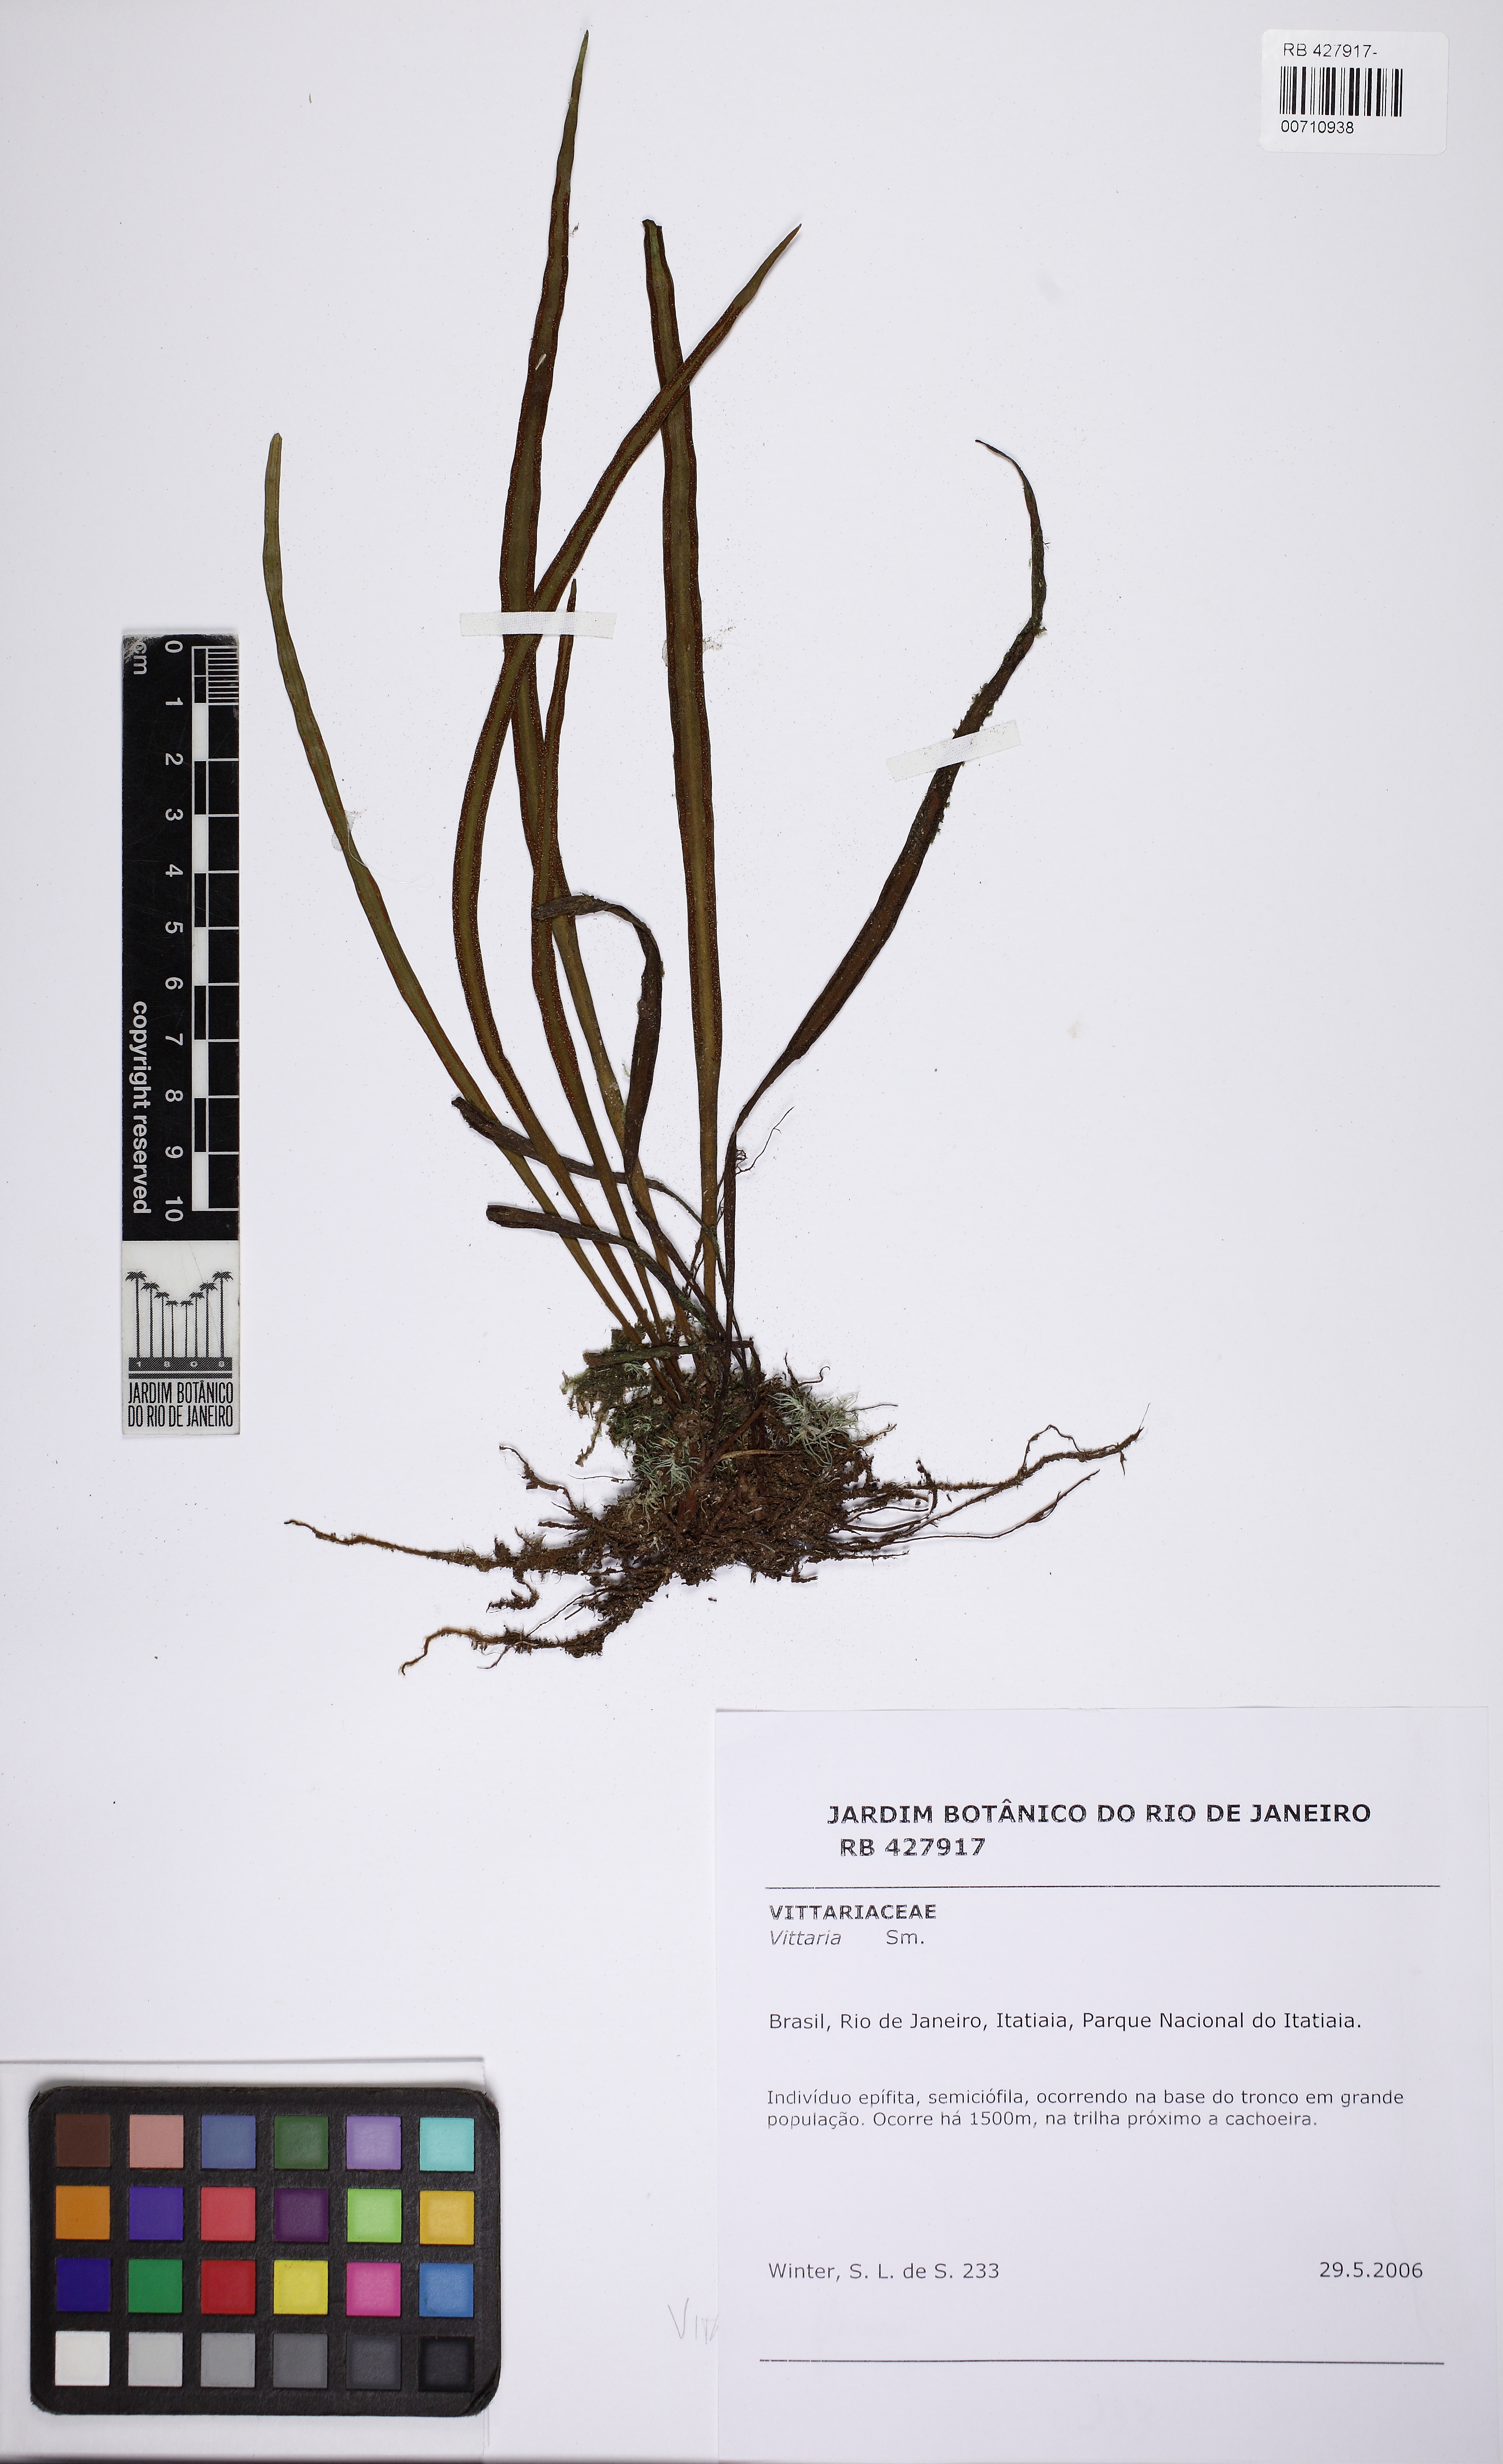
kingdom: Plantae
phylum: Tracheophyta
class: Polypodiopsida
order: Polypodiales
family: Pteridaceae
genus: Radiovittaria
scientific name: Radiovittaria stipitata
